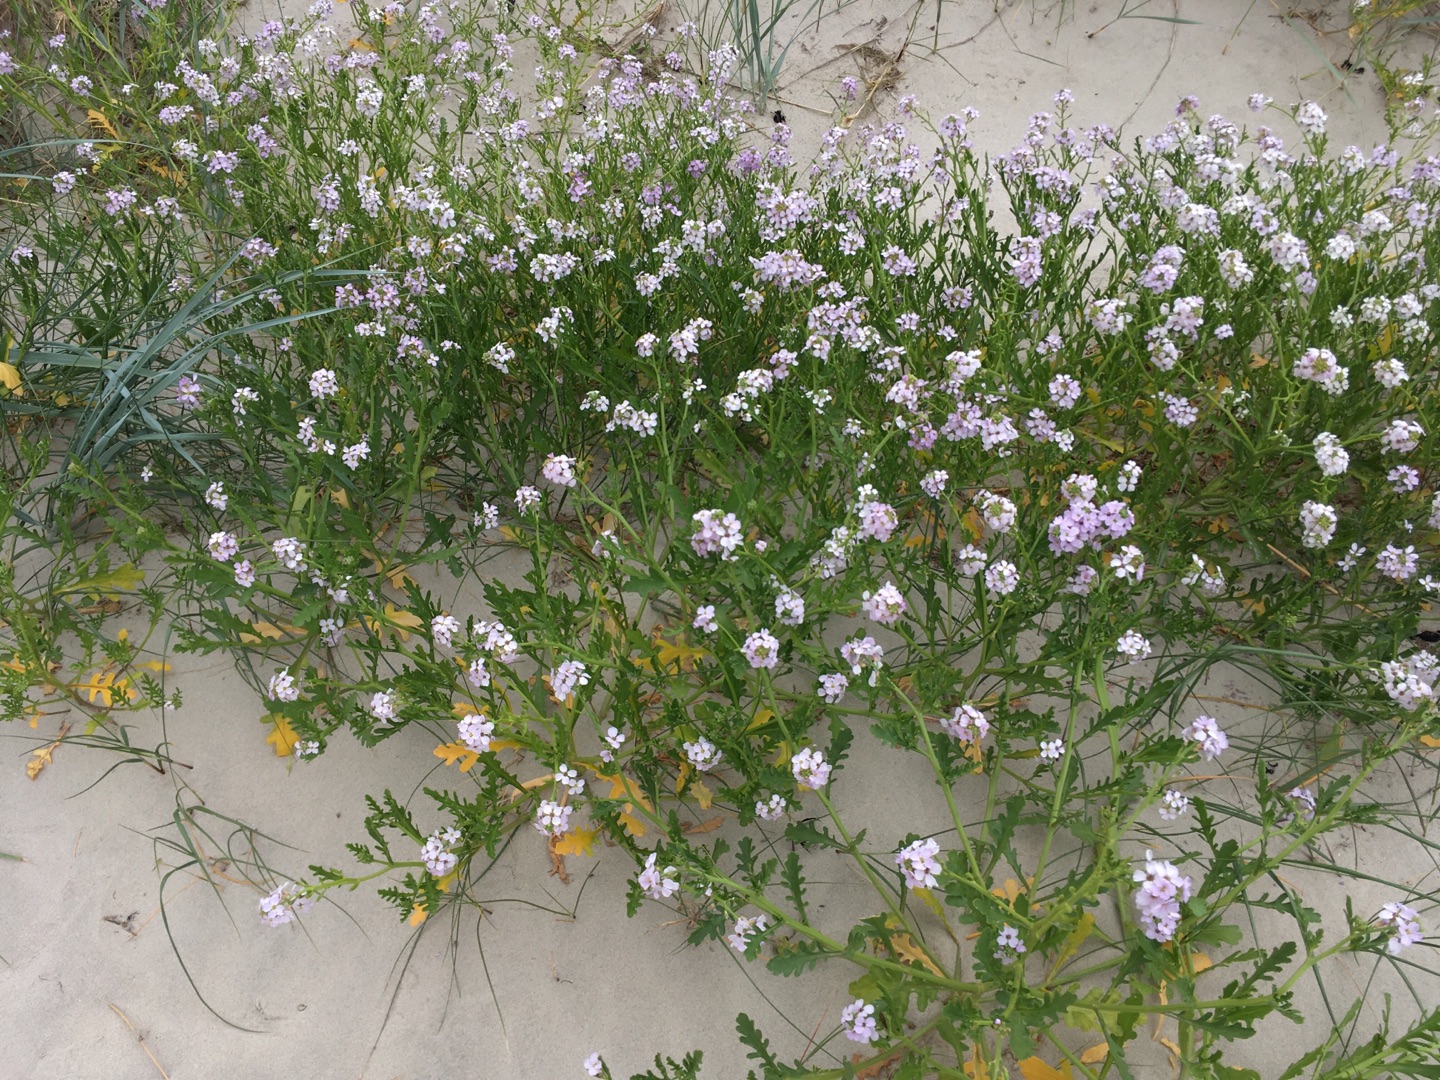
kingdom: Plantae
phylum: Tracheophyta
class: Magnoliopsida
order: Brassicales
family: Brassicaceae
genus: Cakile
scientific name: Cakile maritima
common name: Strandsennep
